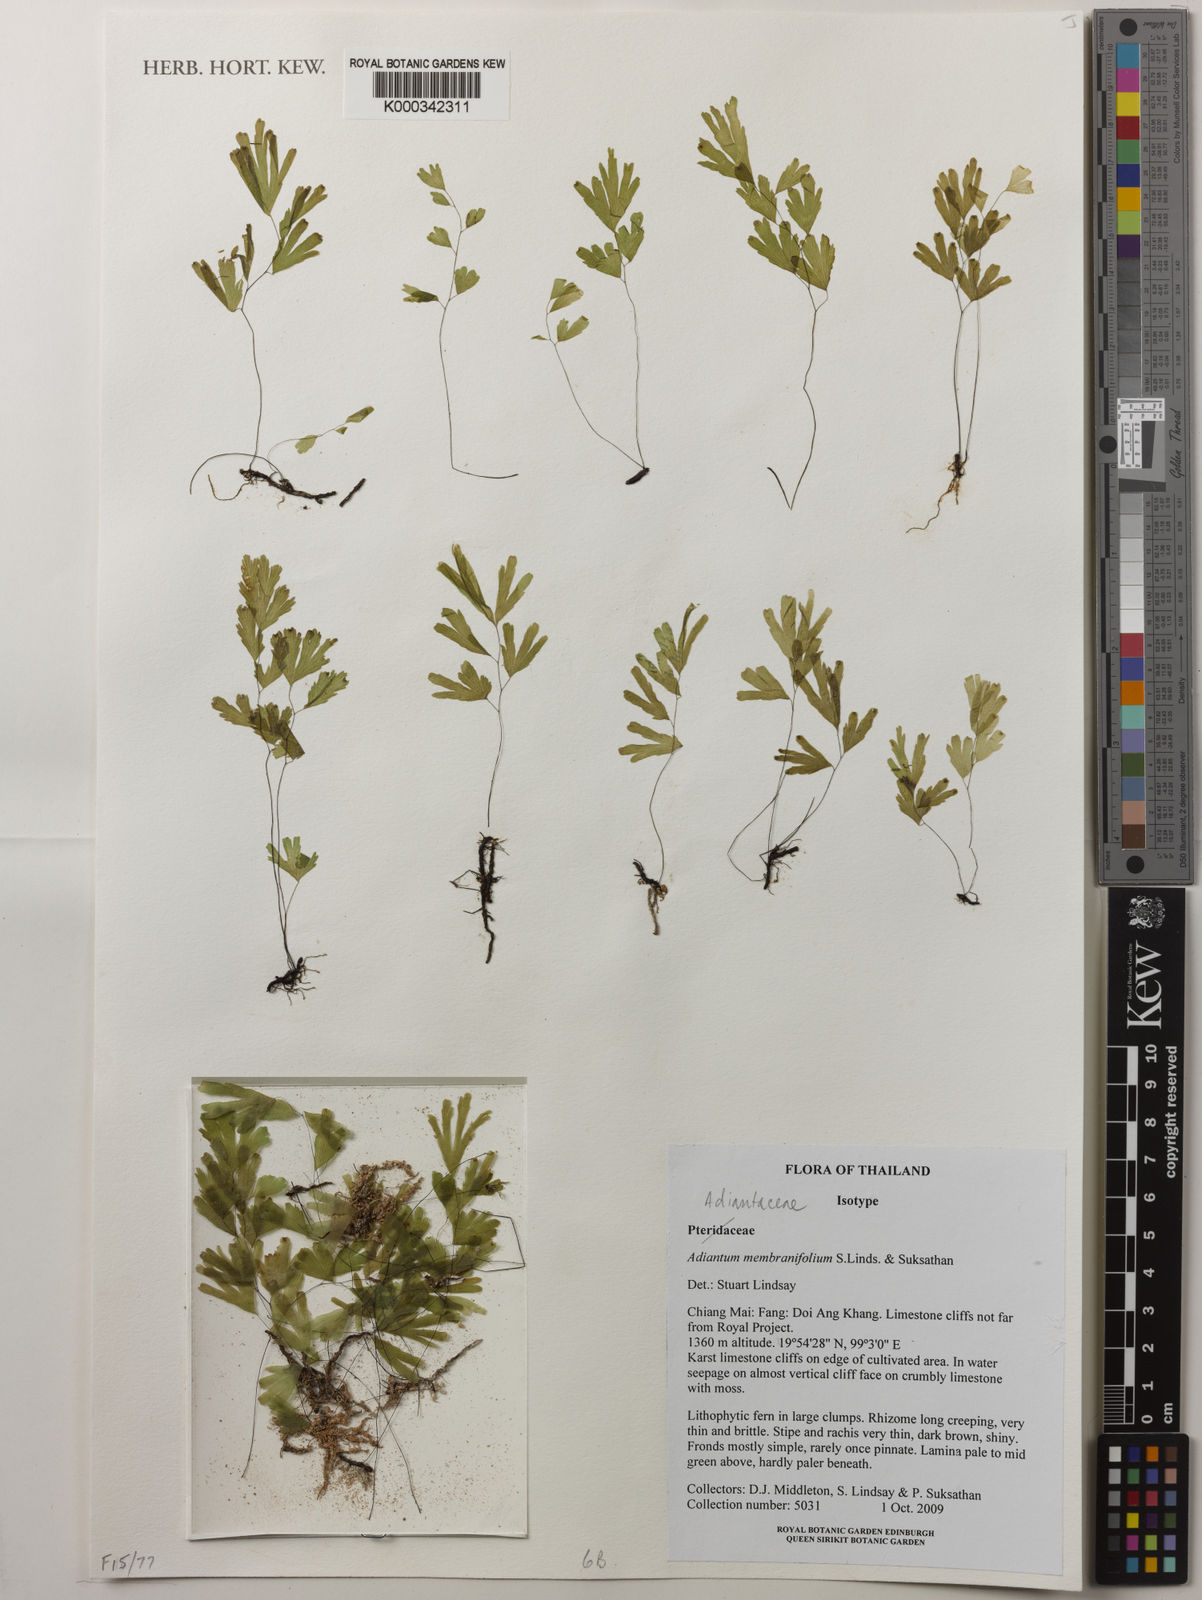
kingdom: Plantae
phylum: Tracheophyta
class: Polypodiopsida
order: Polypodiales
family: Pteridaceae
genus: Adiantum
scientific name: Adiantum membranifolium
